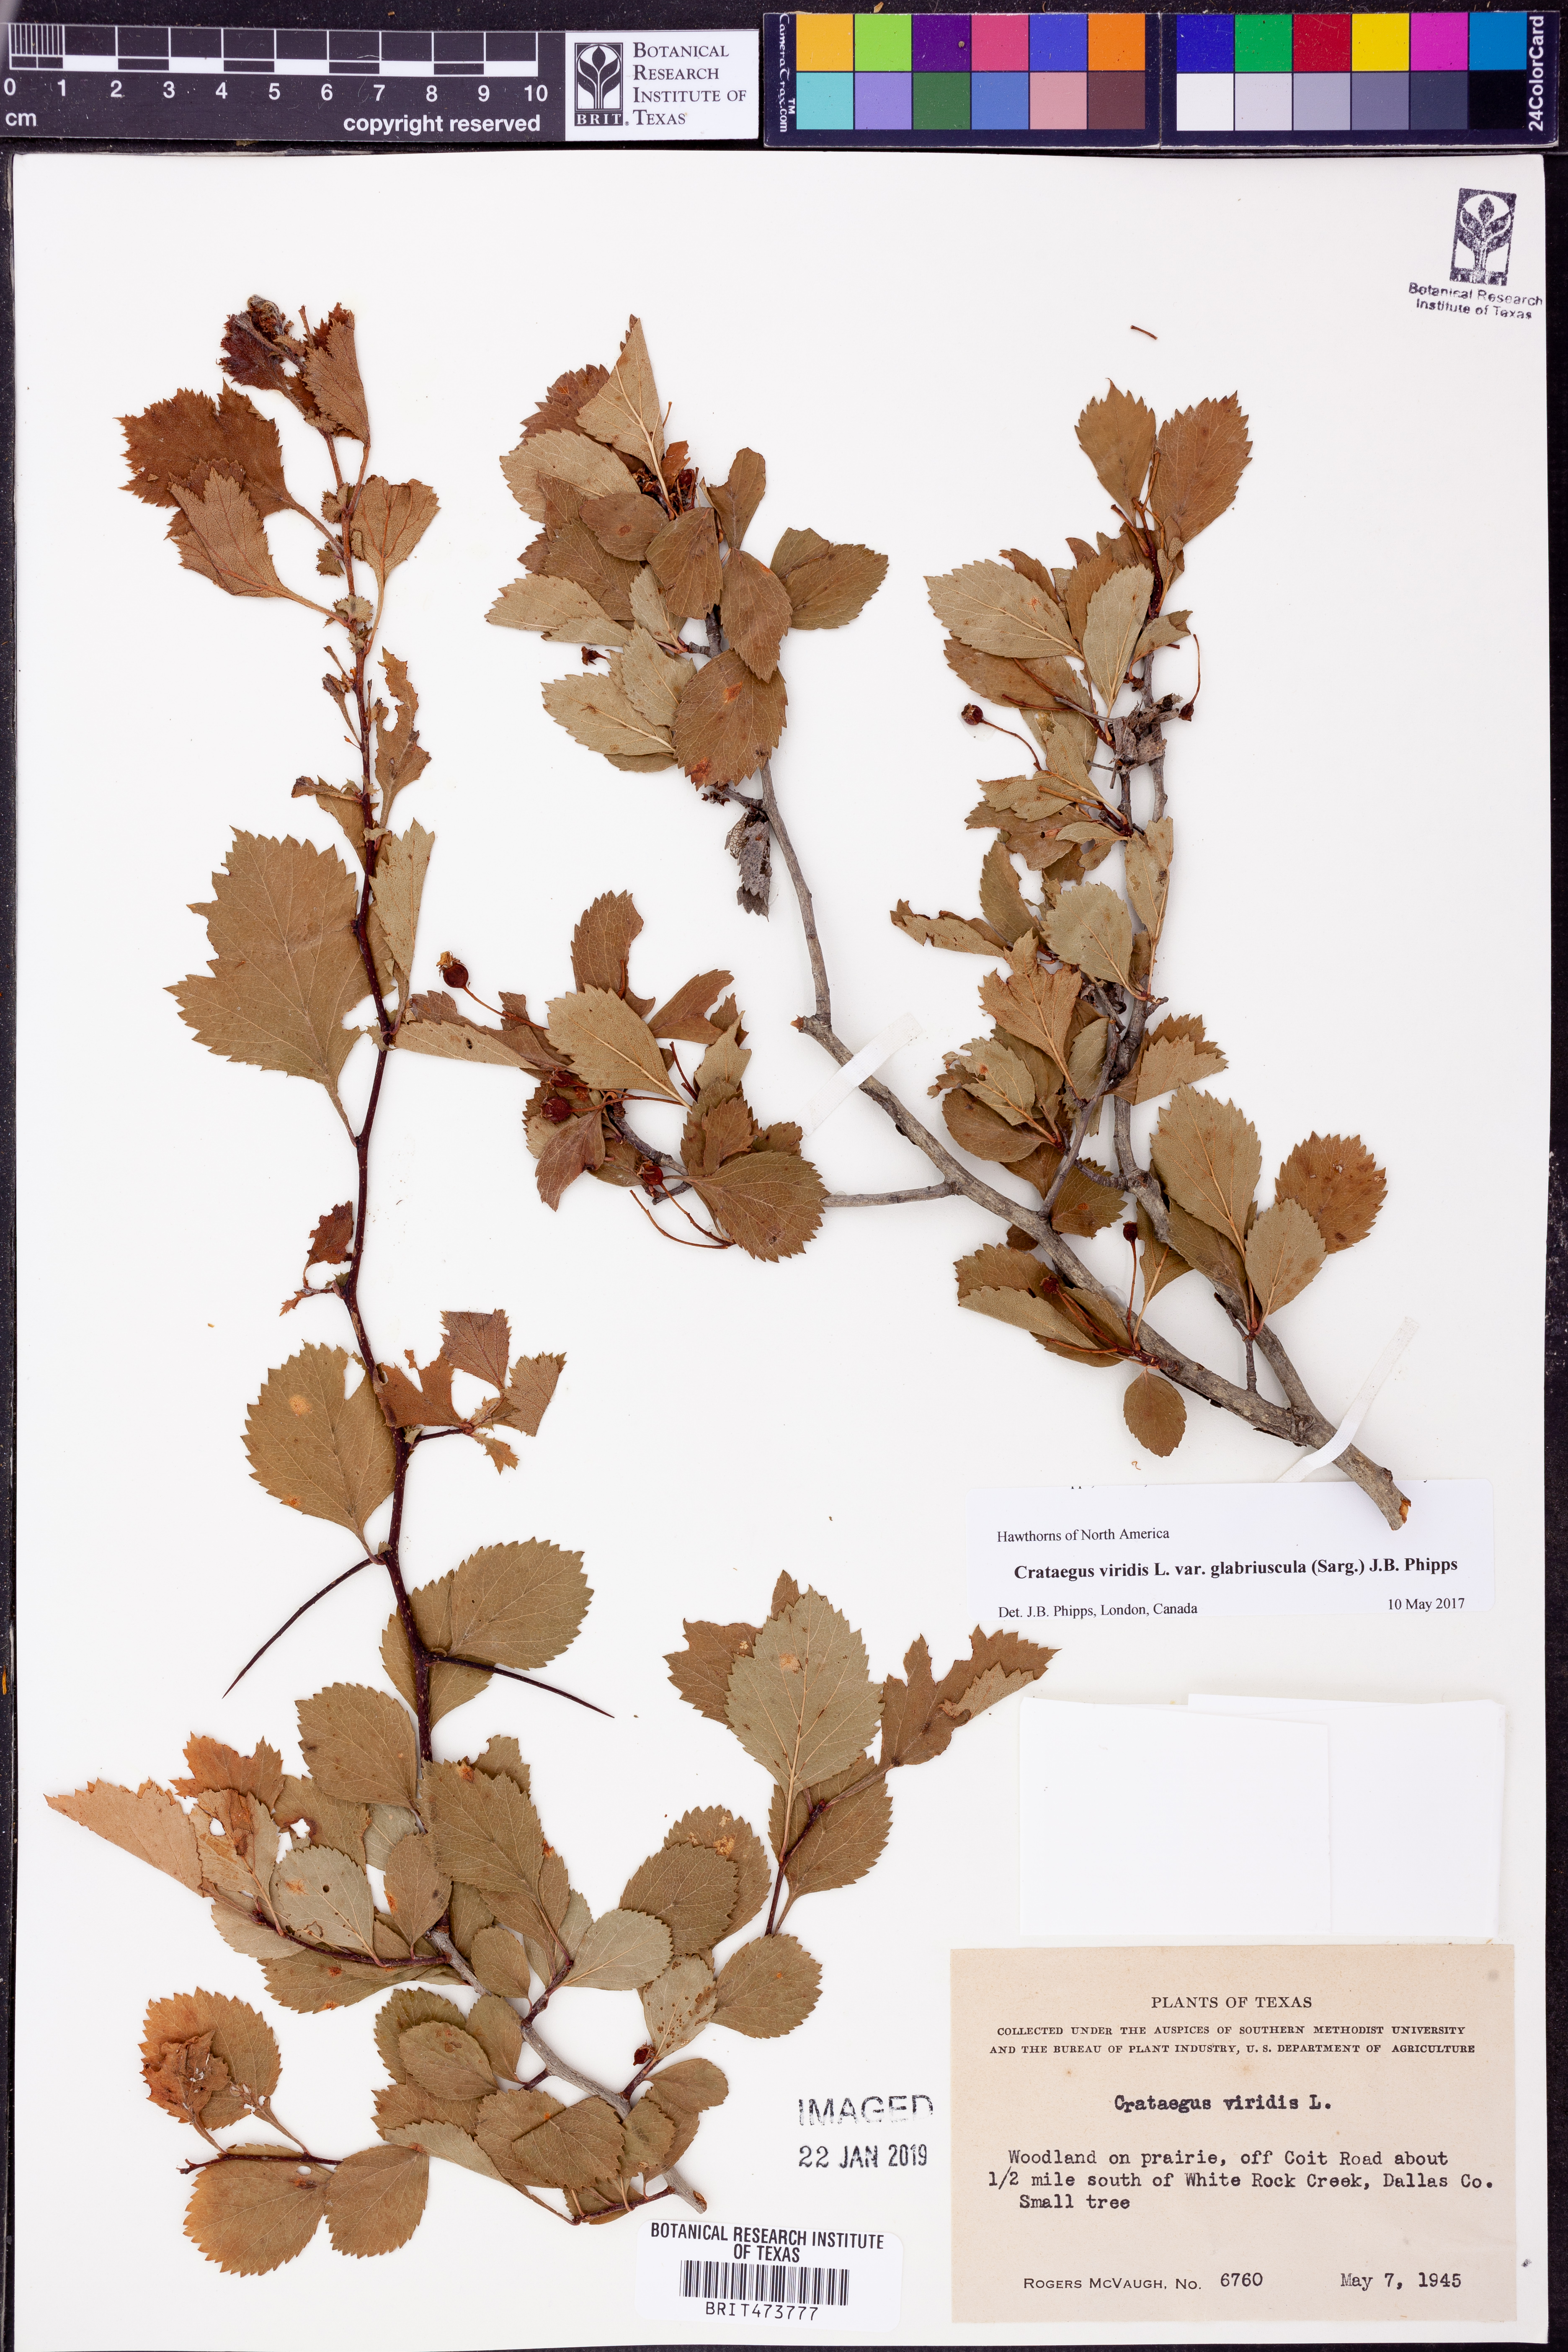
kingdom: Plantae
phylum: Tracheophyta
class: Magnoliopsida
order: Rosales
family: Rosaceae
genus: Crataegus
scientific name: Crataegus viridis
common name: Southernthorn
